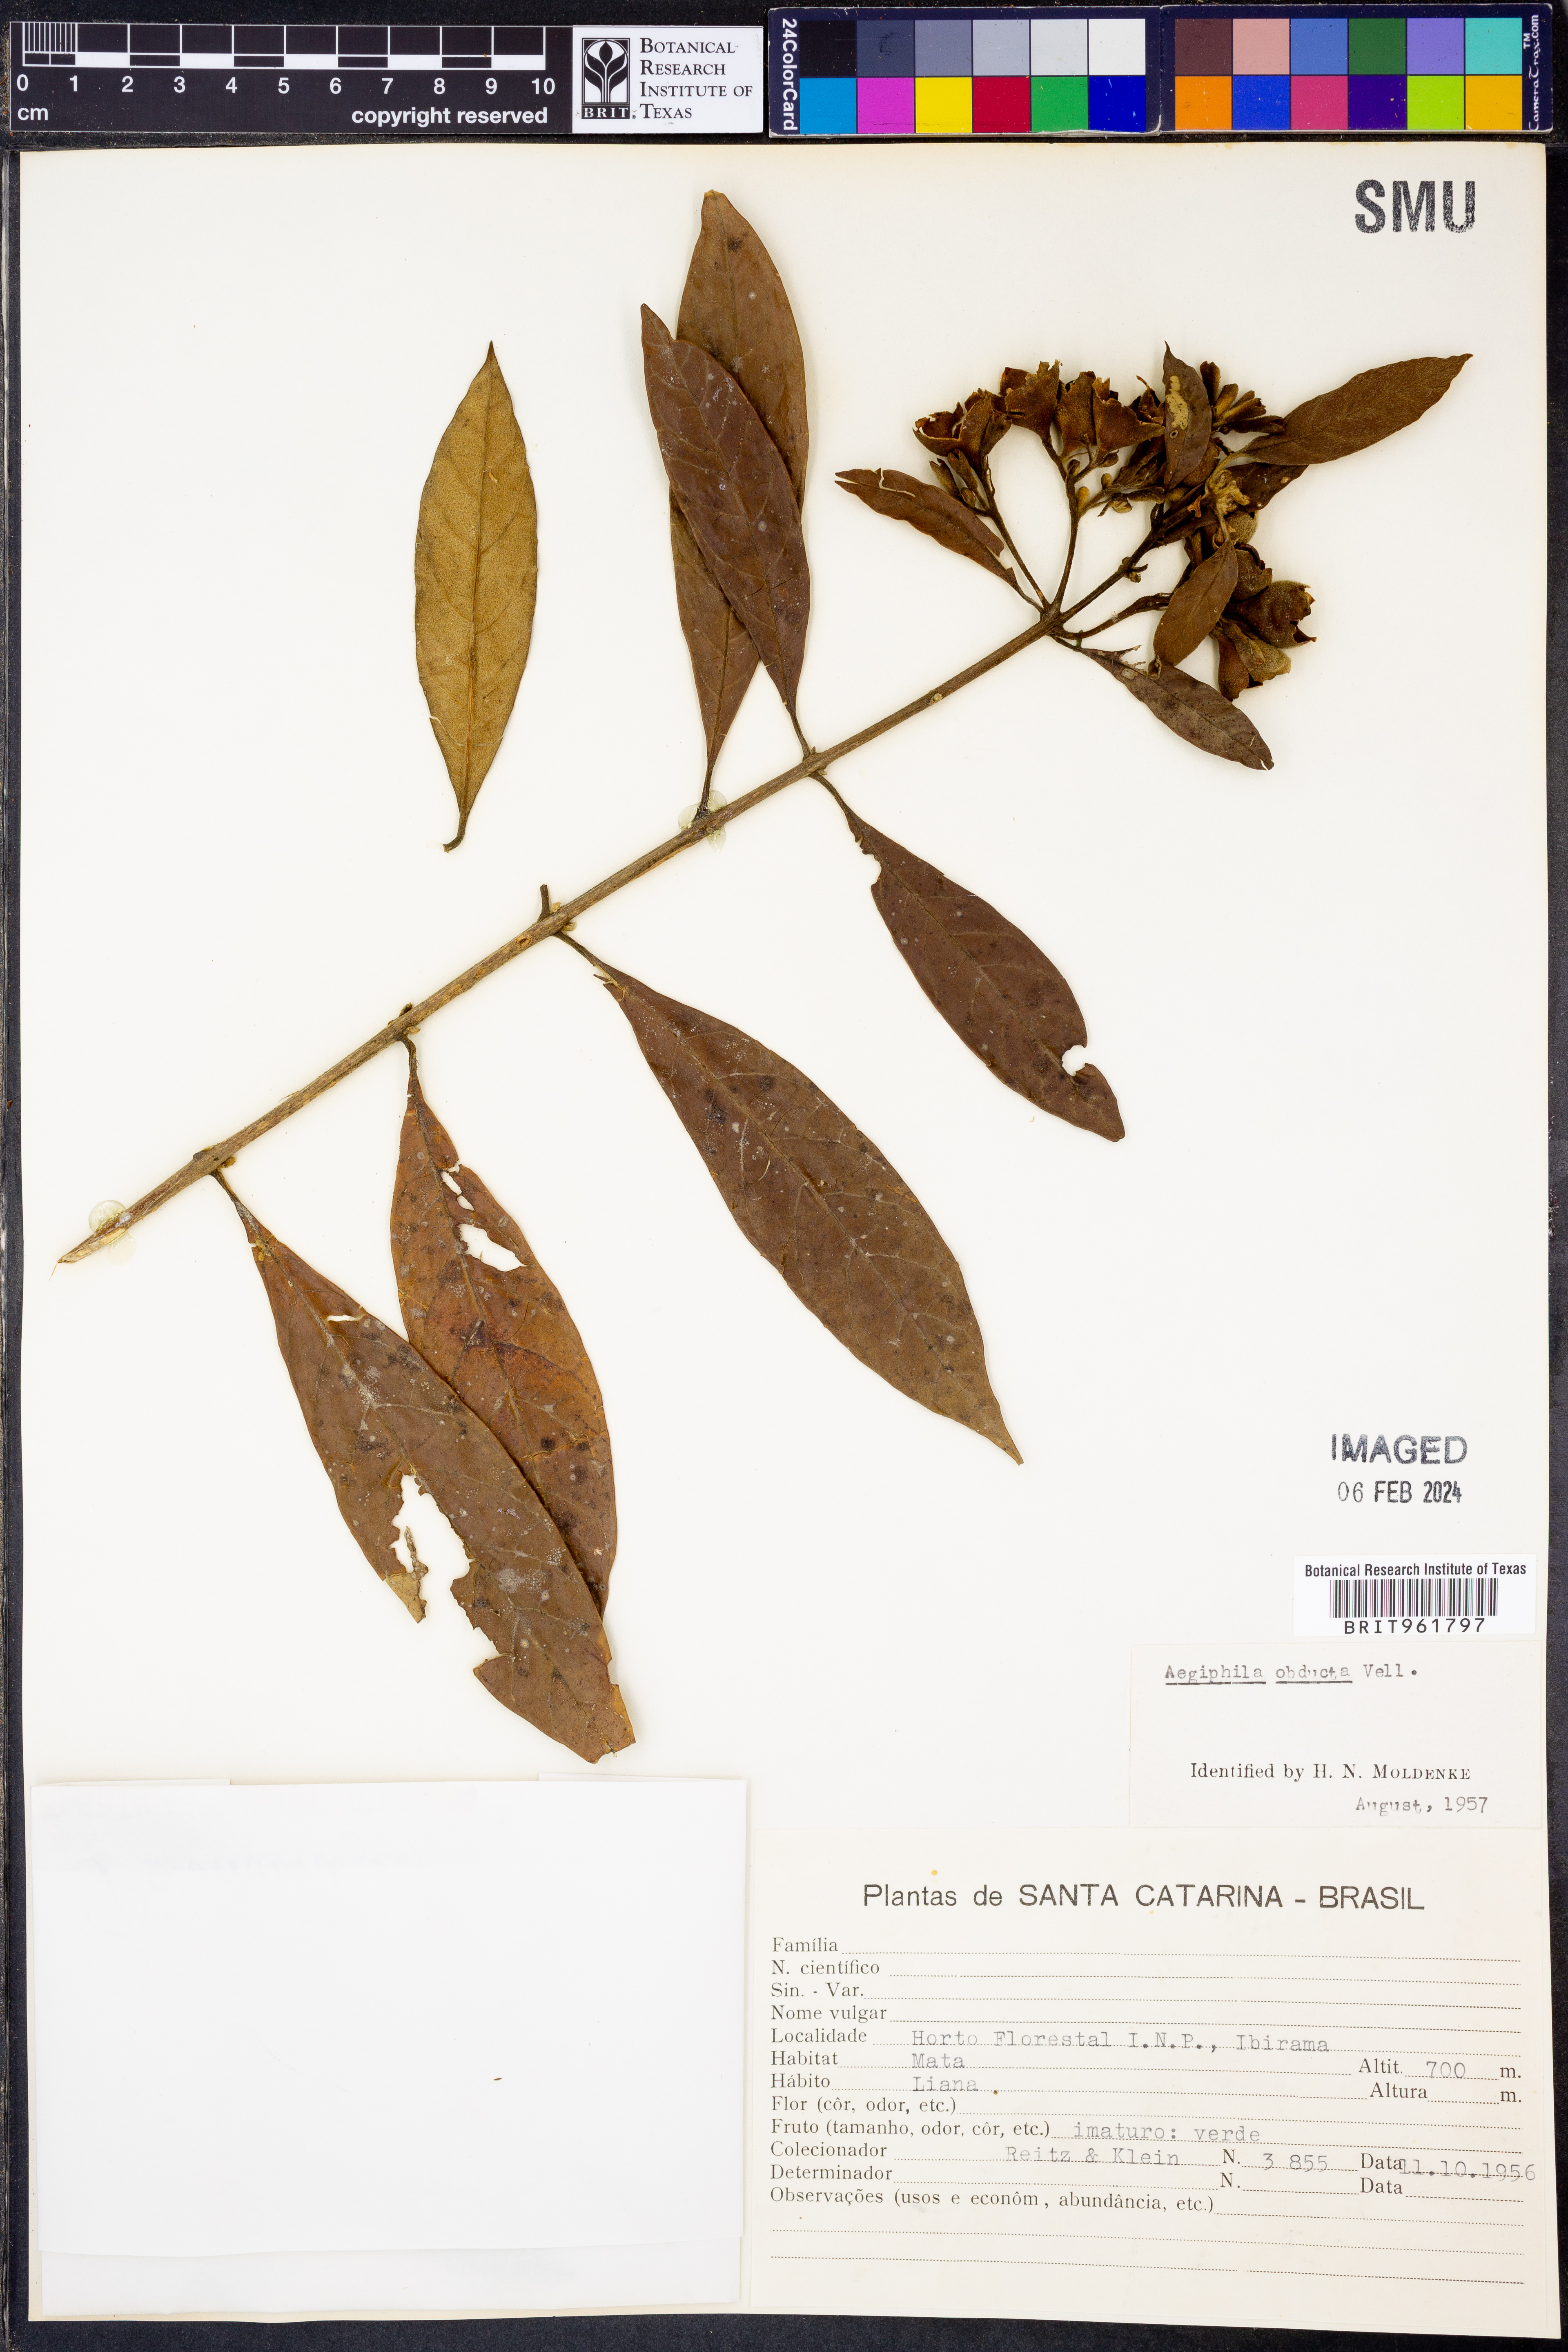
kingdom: Plantae
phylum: Tracheophyta
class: Magnoliopsida
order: Lamiales
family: Lamiaceae
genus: Aegiphila
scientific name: Aegiphila
